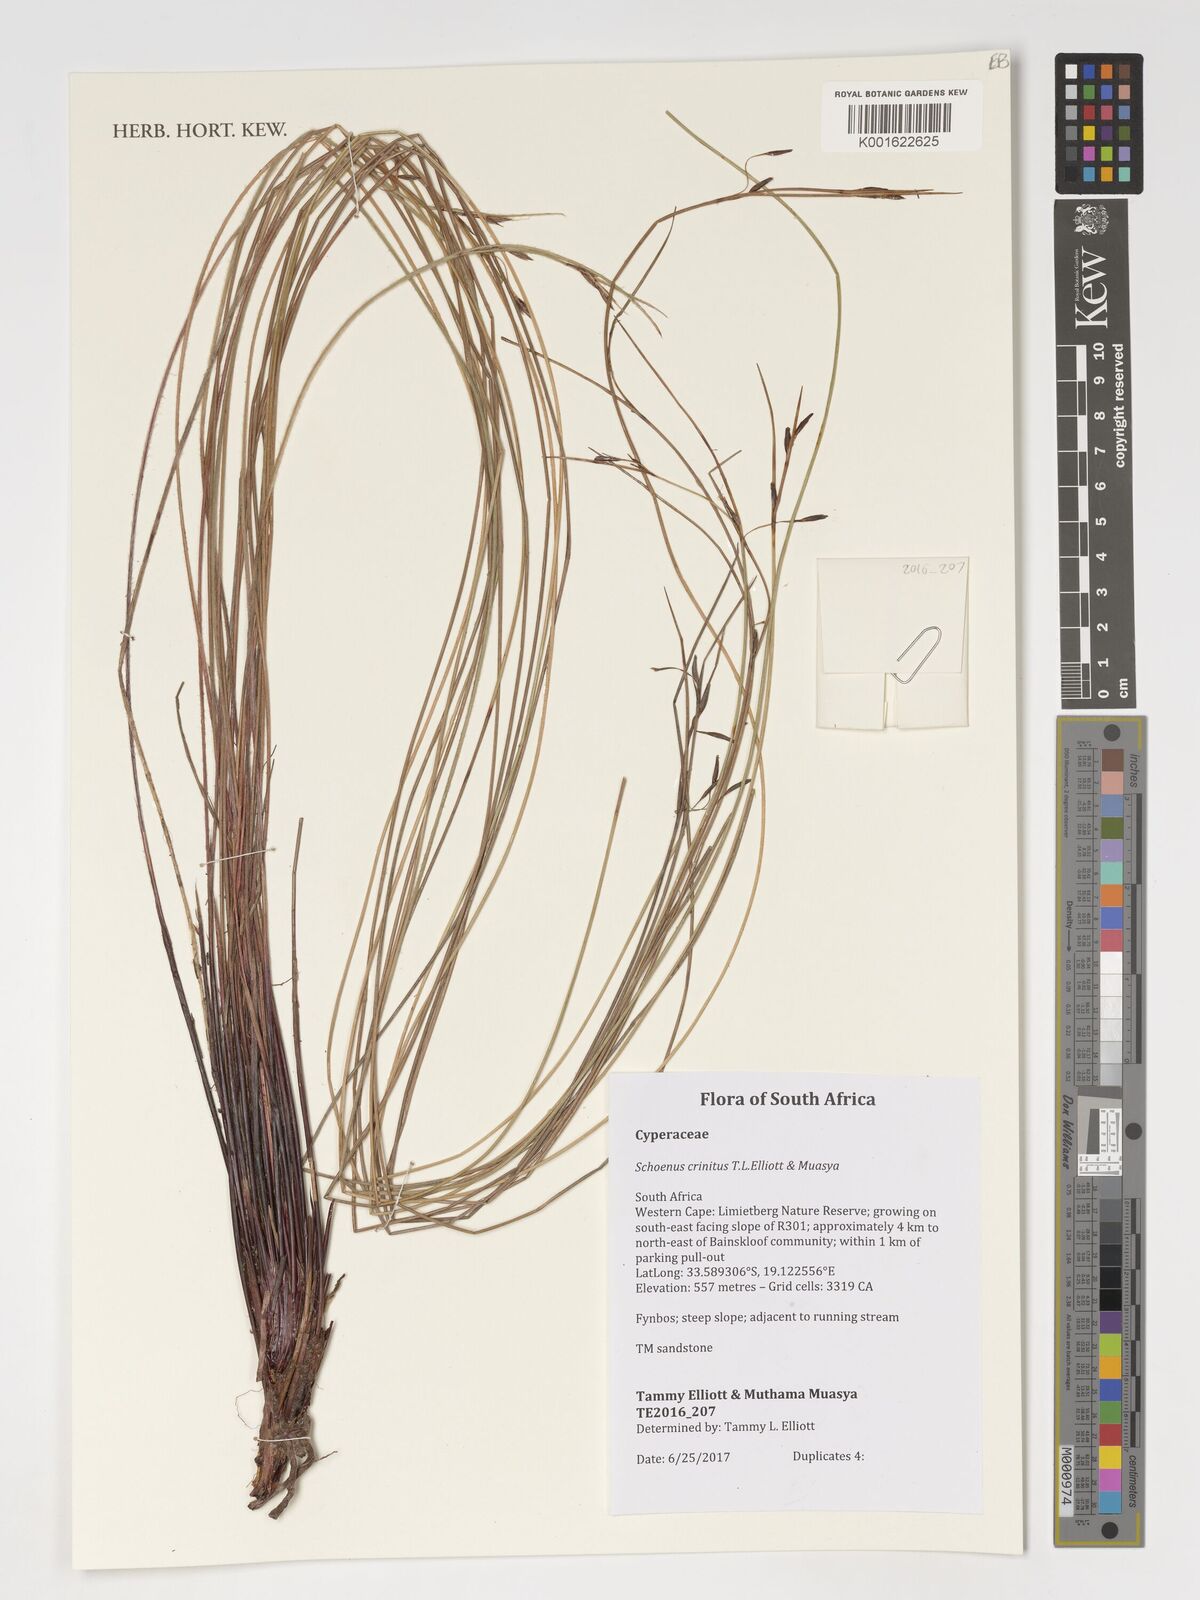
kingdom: Plantae
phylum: Tracheophyta
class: Liliopsida
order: Poales
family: Cyperaceae
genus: Schoenus
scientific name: Schoenus
